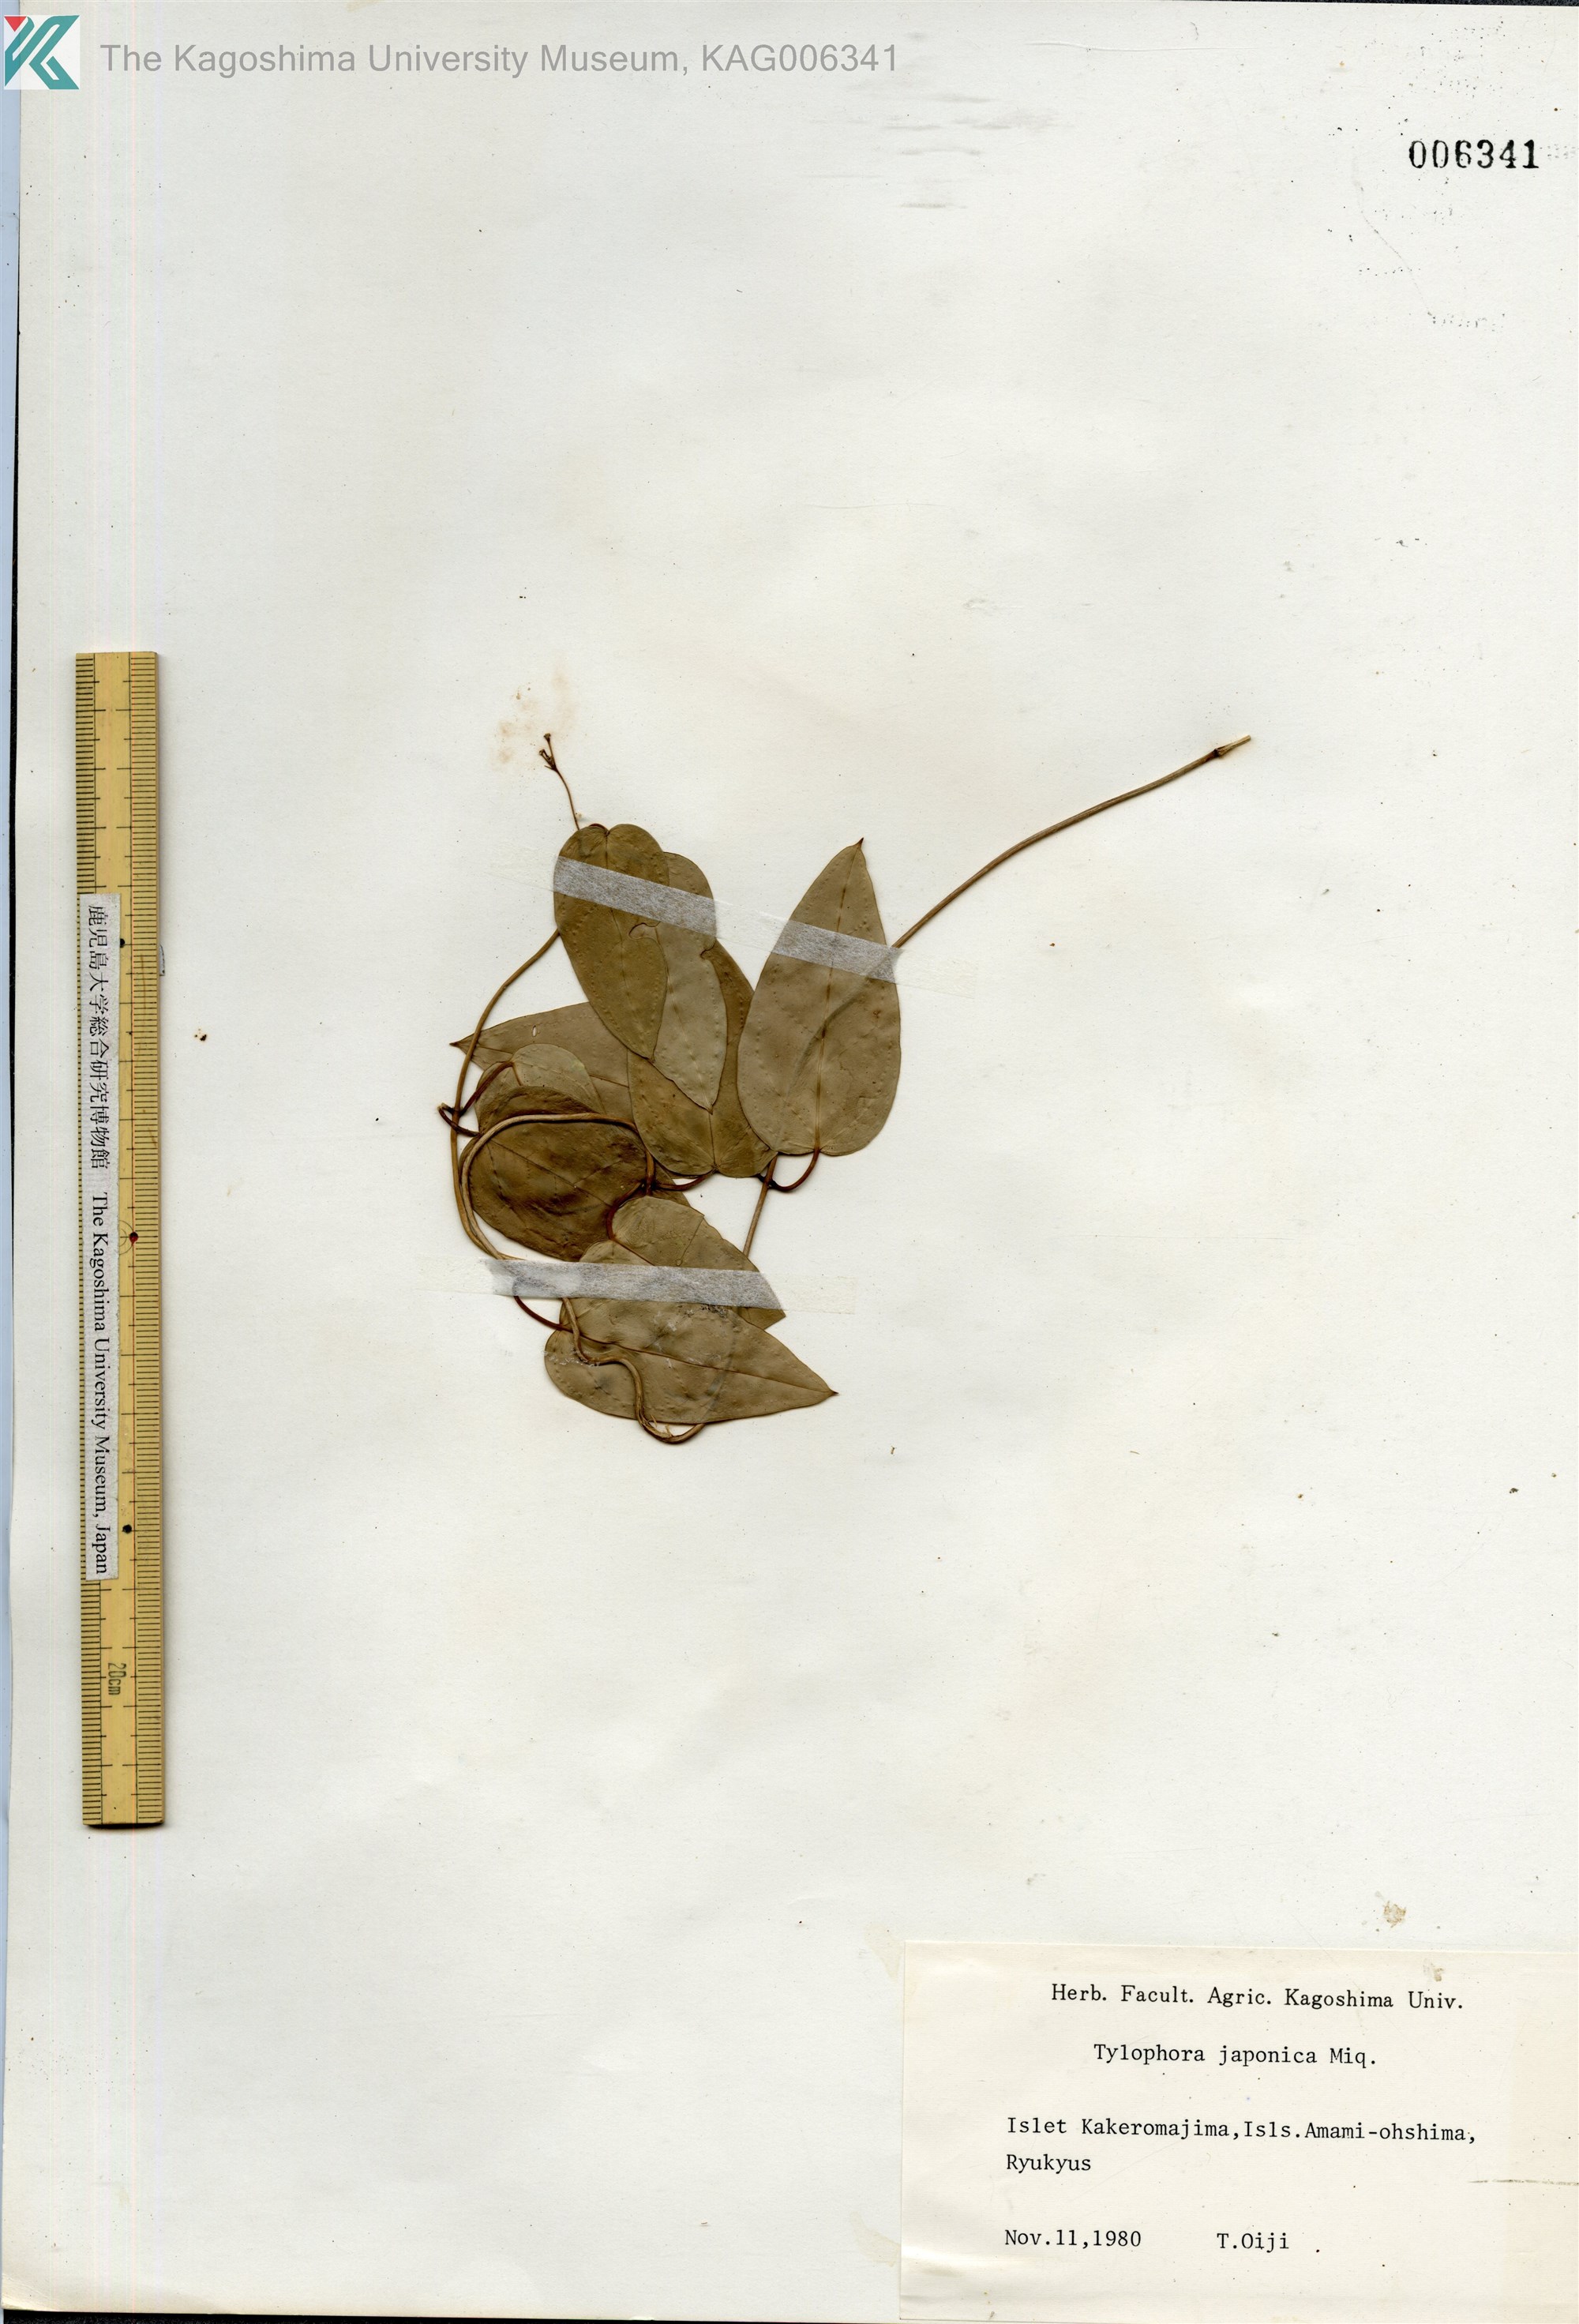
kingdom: Plantae
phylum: Tracheophyta
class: Magnoliopsida
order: Gentianales
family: Apocynaceae
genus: Vincetoxicum
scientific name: Vincetoxicum sieboldii
